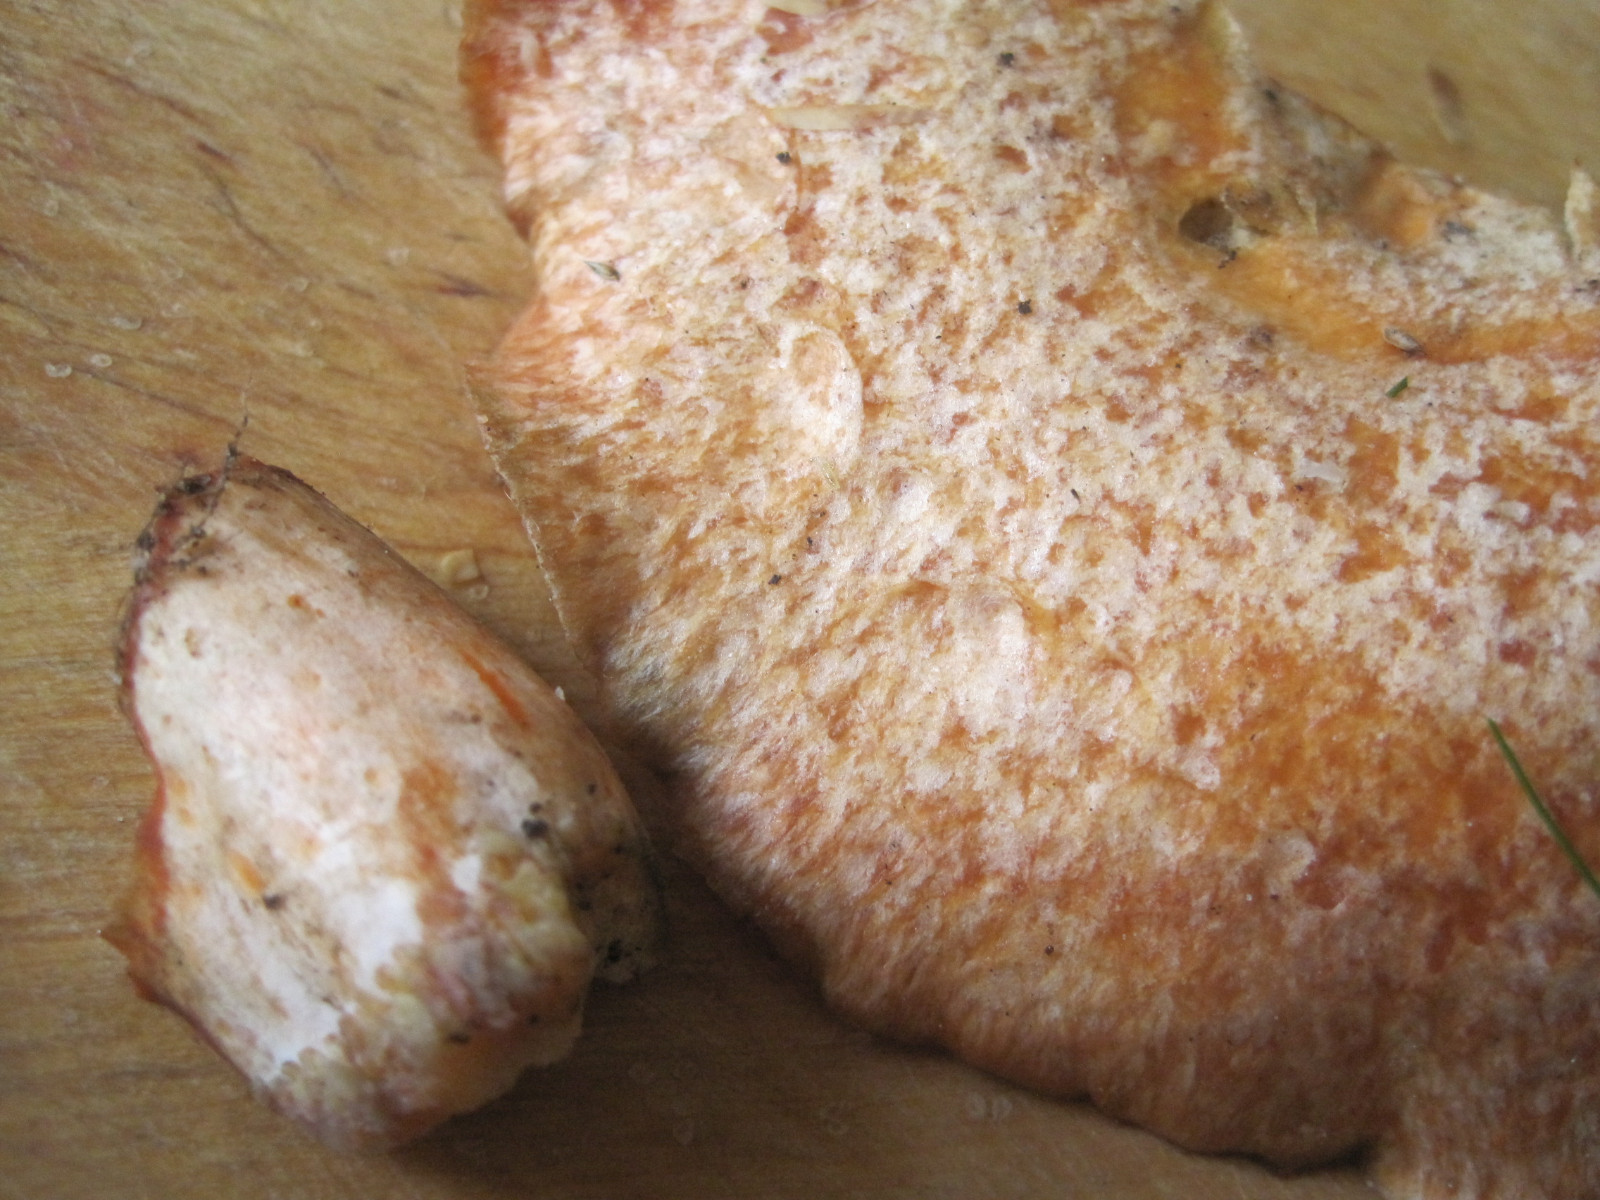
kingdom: Fungi
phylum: Basidiomycota
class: Agaricomycetes
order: Russulales
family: Russulaceae
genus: Lactarius
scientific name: Lactarius deliciosus
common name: velsmagende mælkehat
